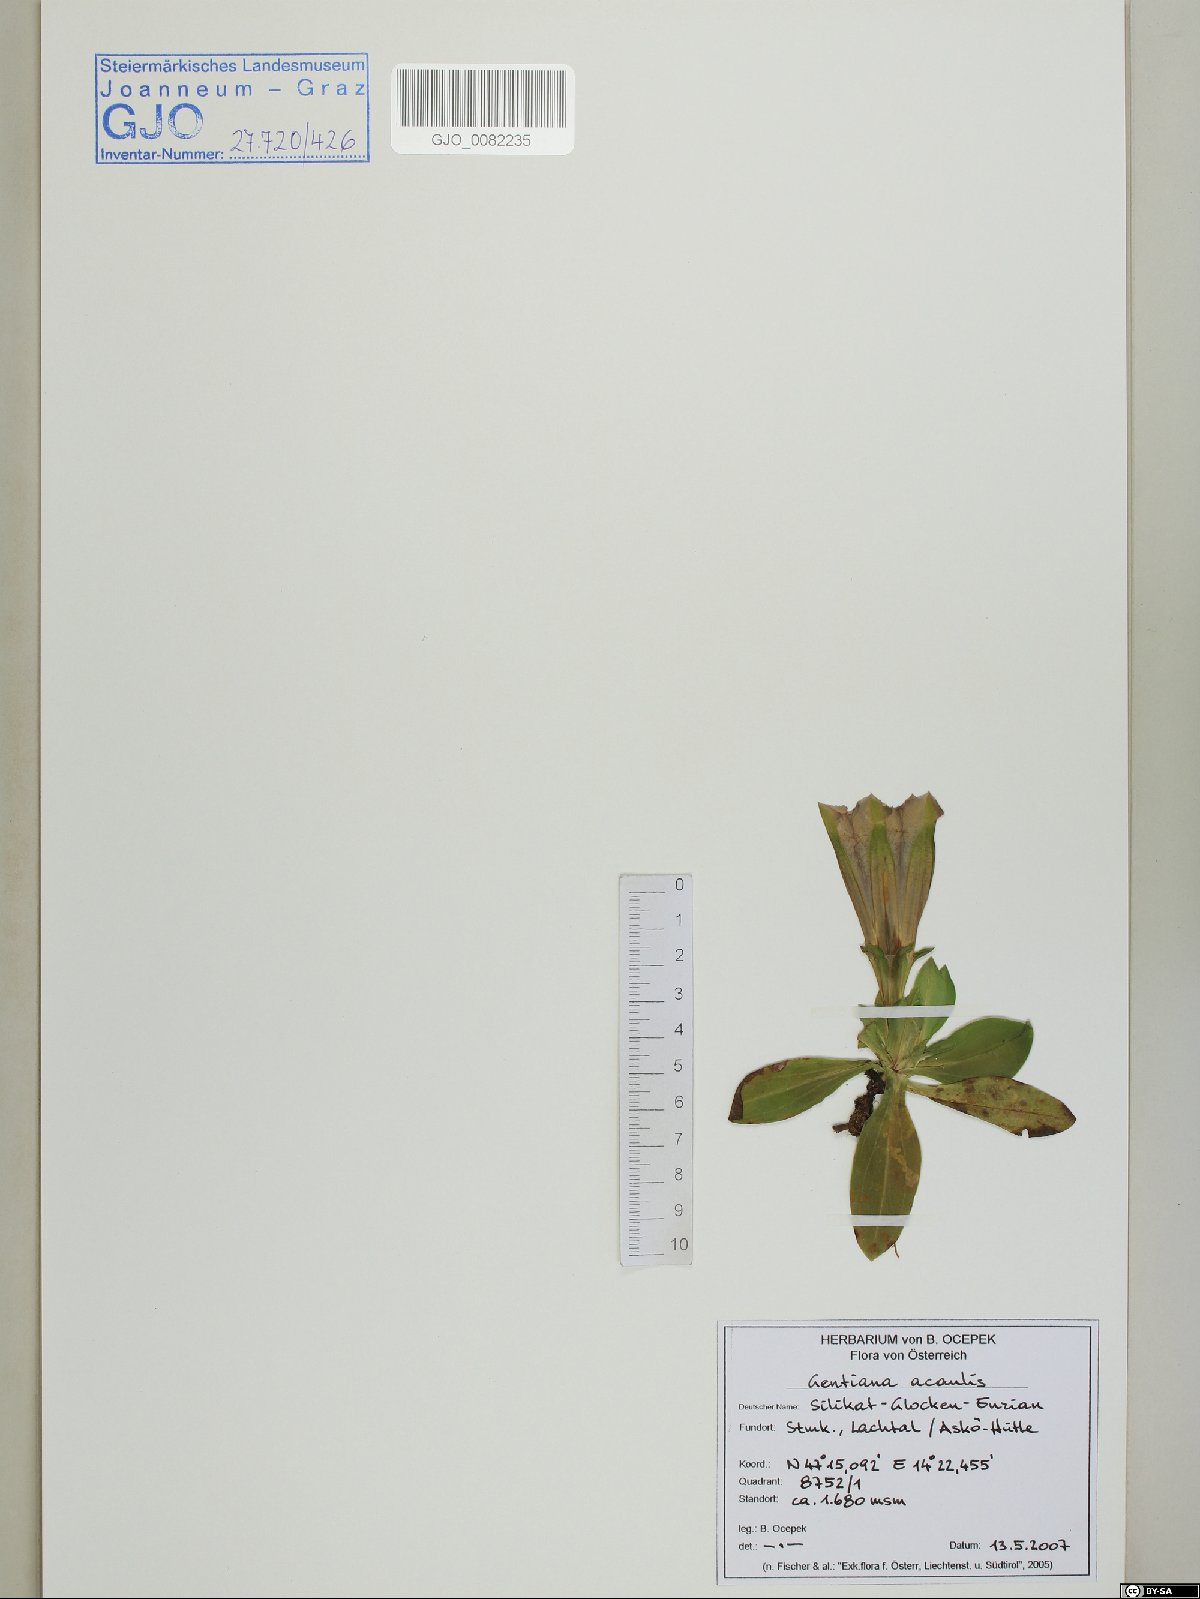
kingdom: Plantae
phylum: Tracheophyta
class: Magnoliopsida
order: Gentianales
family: Gentianaceae
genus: Gentiana
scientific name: Gentiana acaulis
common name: Trumpet gentian
